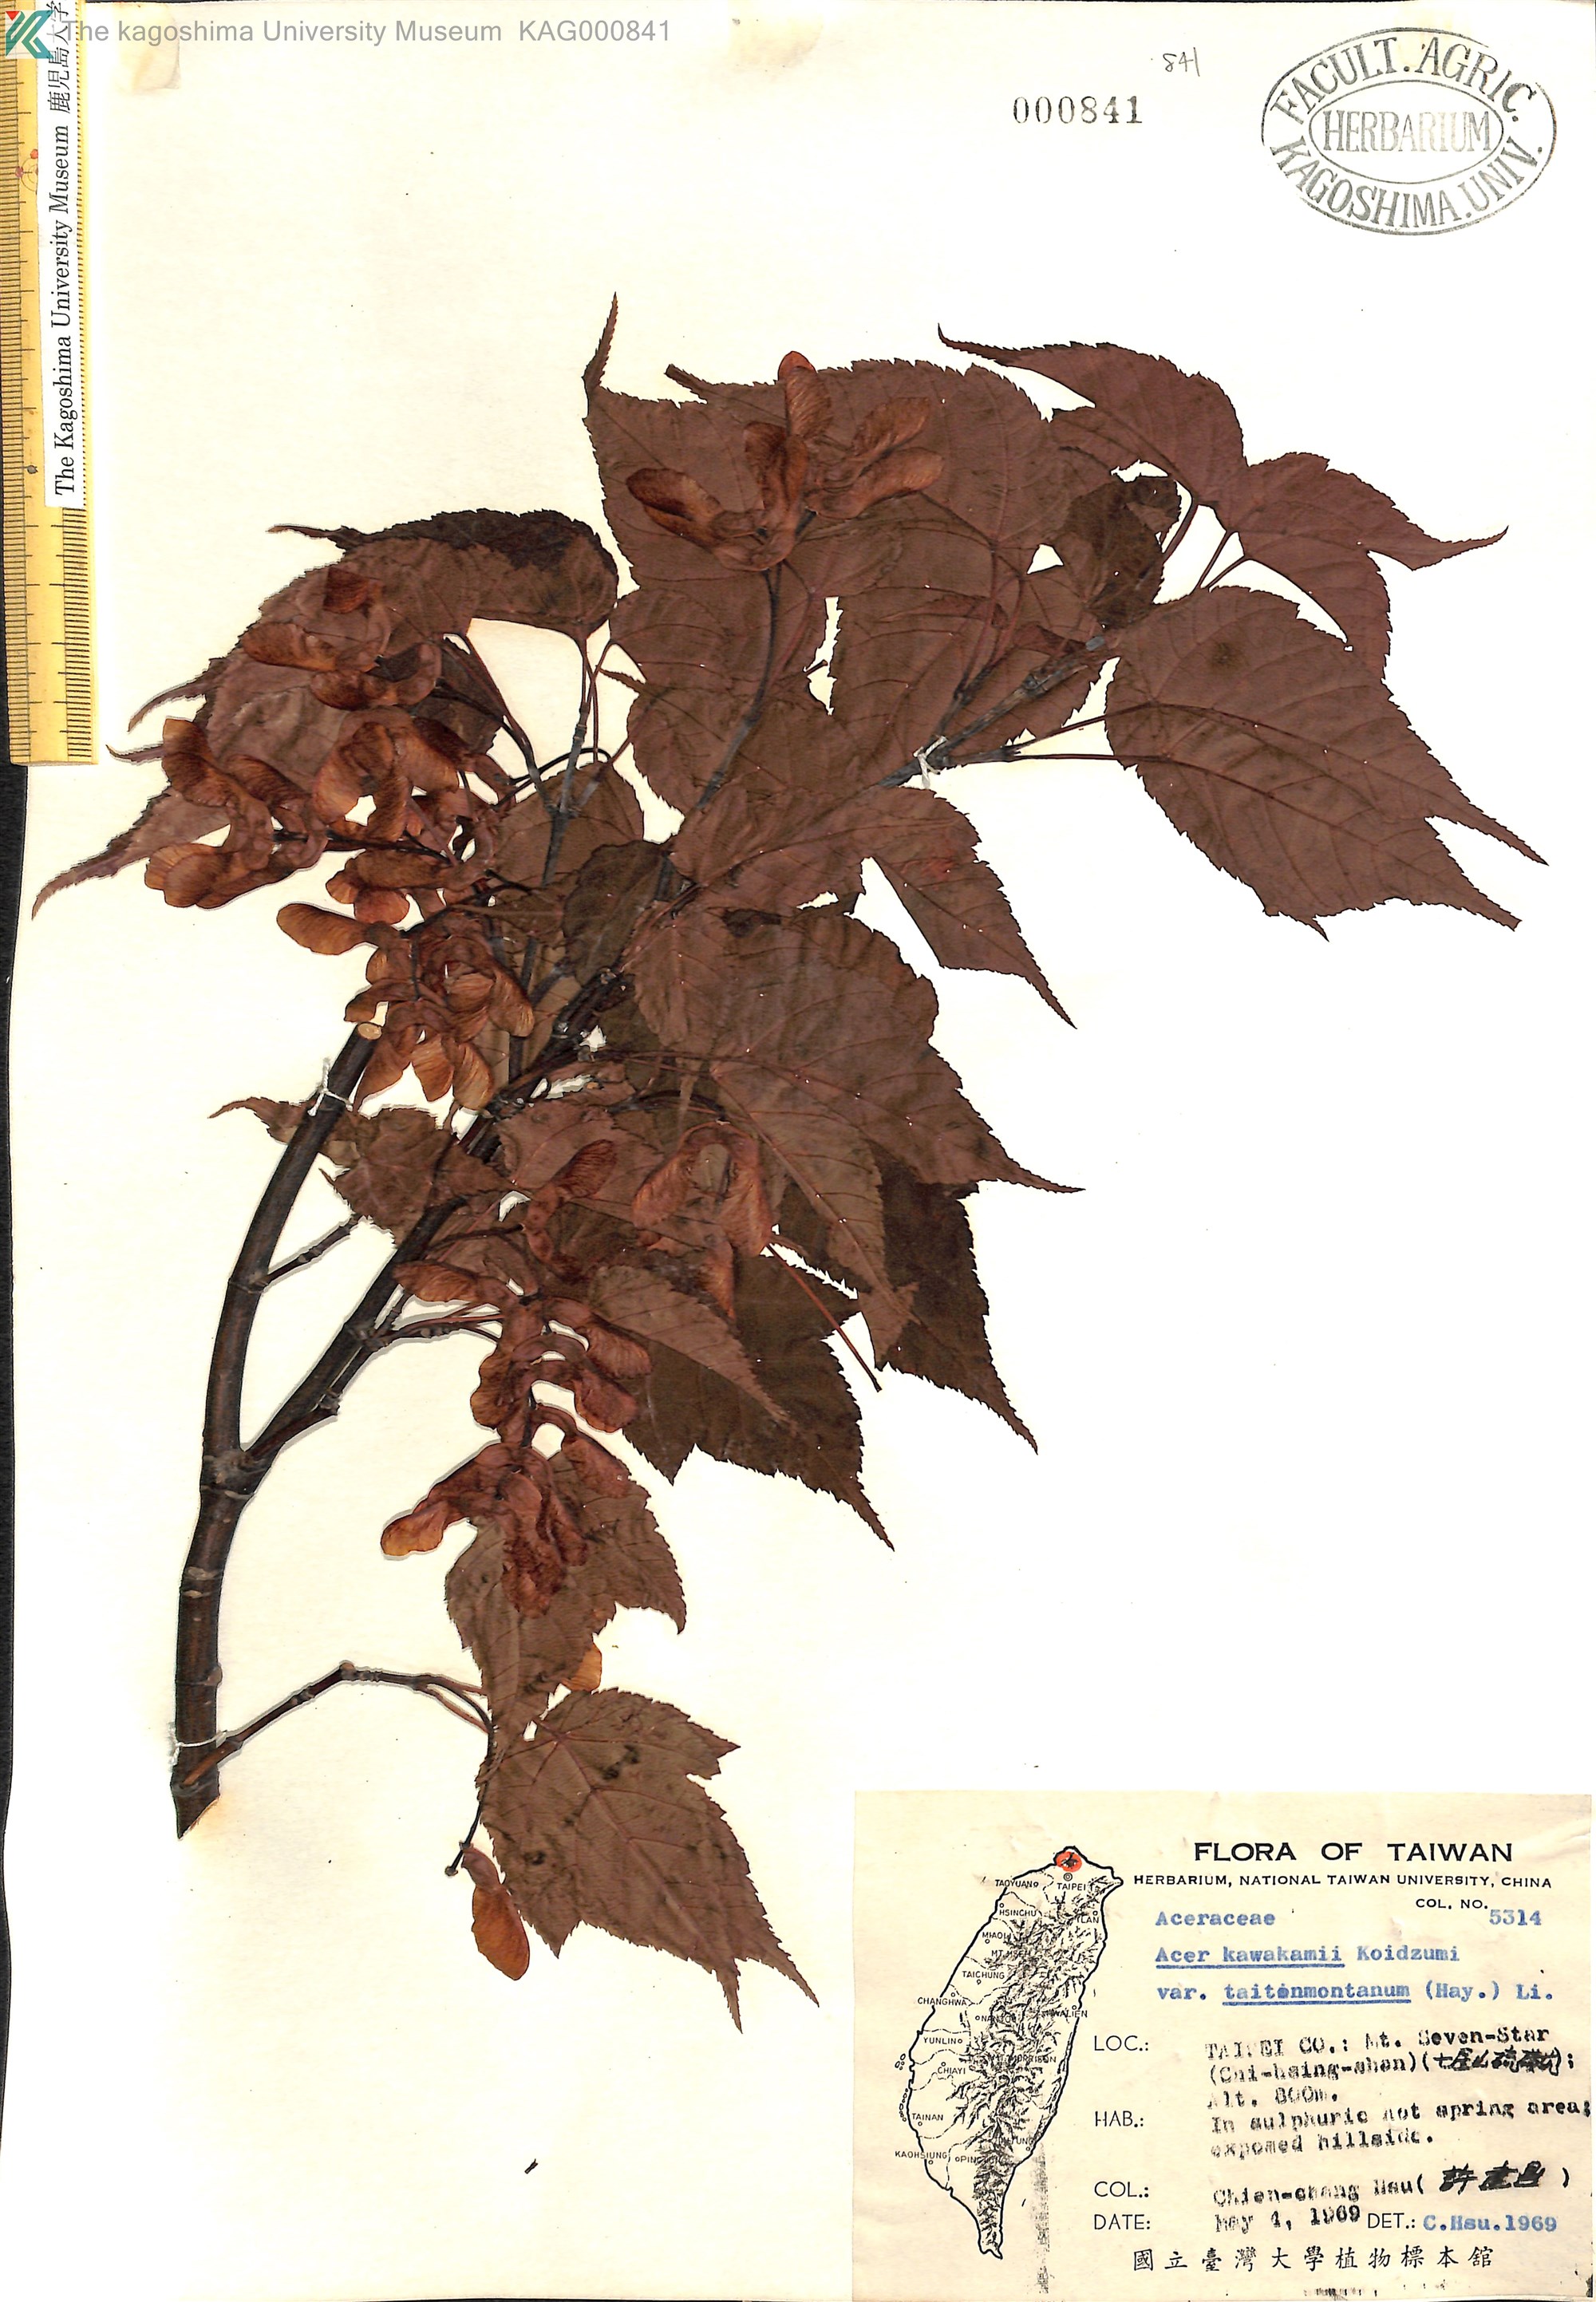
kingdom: Plantae
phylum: Tracheophyta
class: Magnoliopsida
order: Sapindales
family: Sapindaceae
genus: Acer
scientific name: Acer caudatifolium
